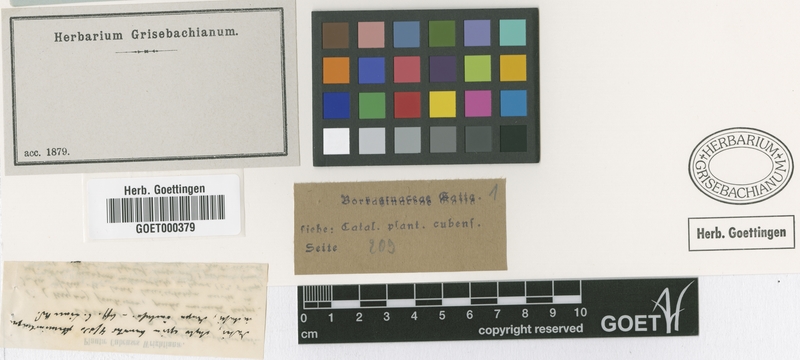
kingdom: Plantae
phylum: Tracheophyta
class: Magnoliopsida
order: Boraginales
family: Cordiaceae
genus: Varronia
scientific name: Varronia pedunculosa
